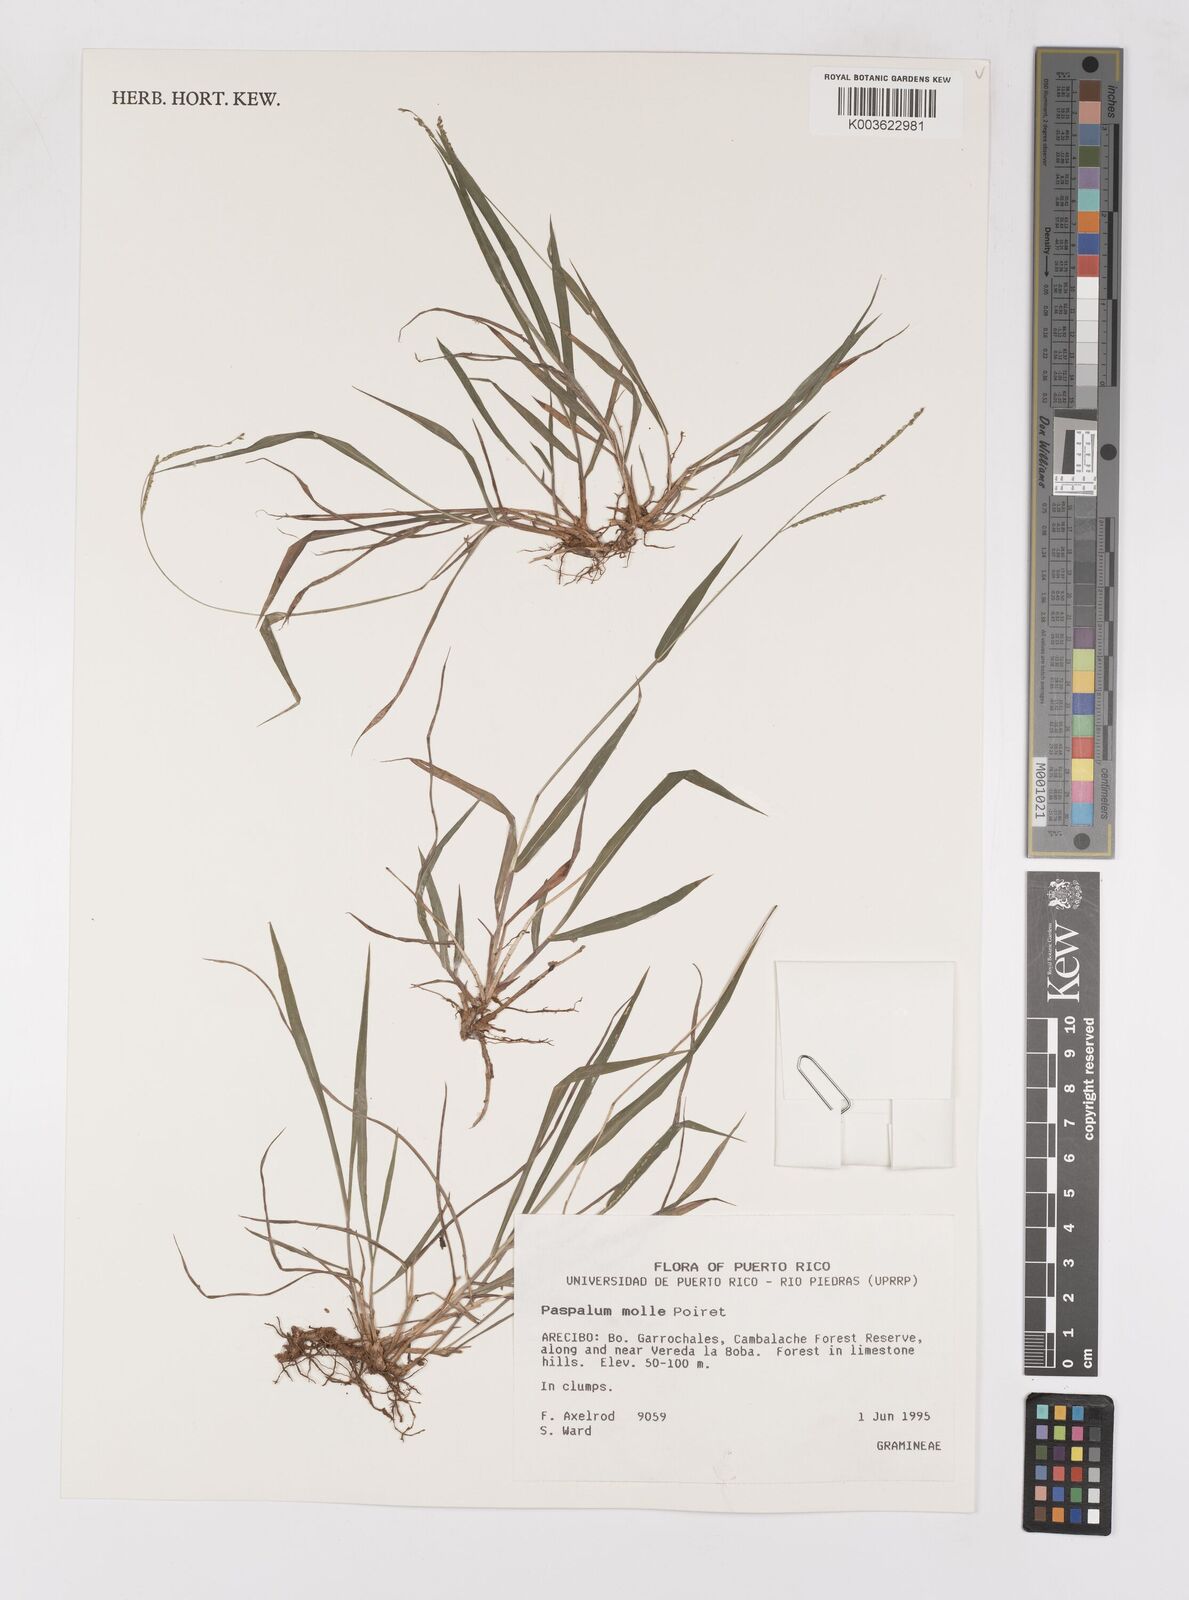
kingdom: Plantae
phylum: Tracheophyta
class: Liliopsida
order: Poales
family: Poaceae
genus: Paspalum
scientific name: Paspalum molle
